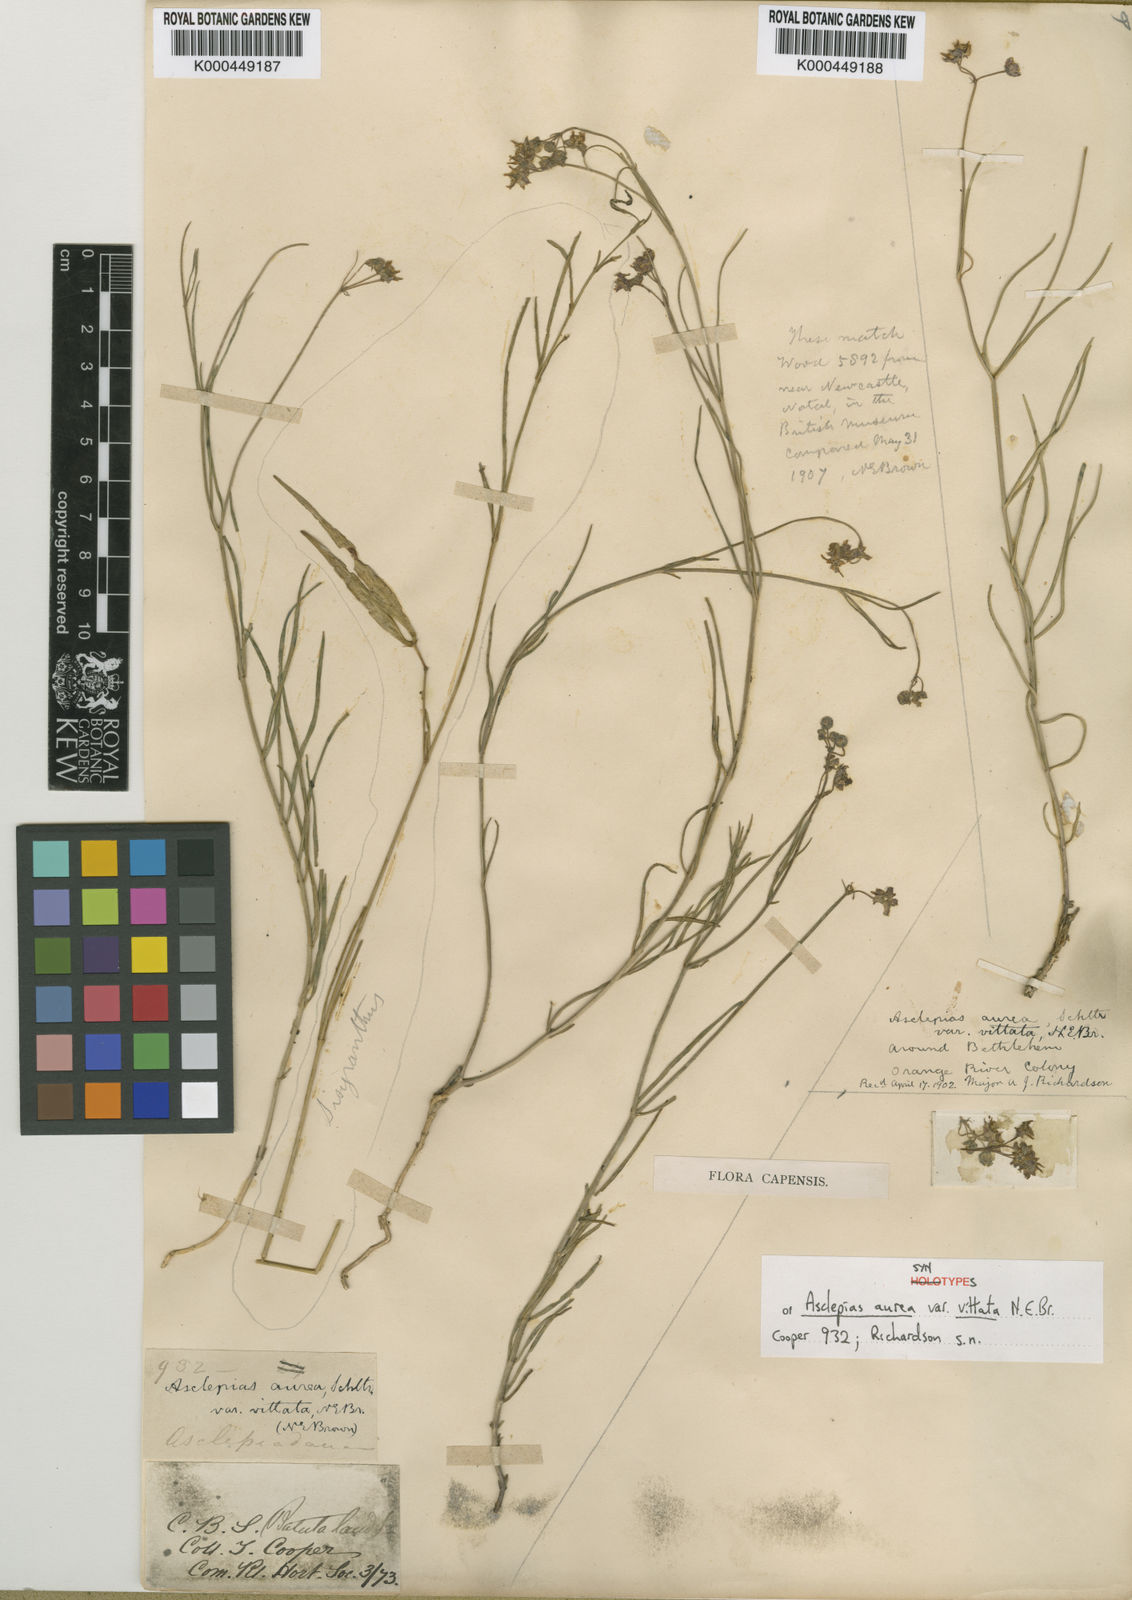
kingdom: Plantae
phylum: Tracheophyta
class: Magnoliopsida
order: Gentianales
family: Apocynaceae
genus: Asclepias
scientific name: Asclepias aurea
